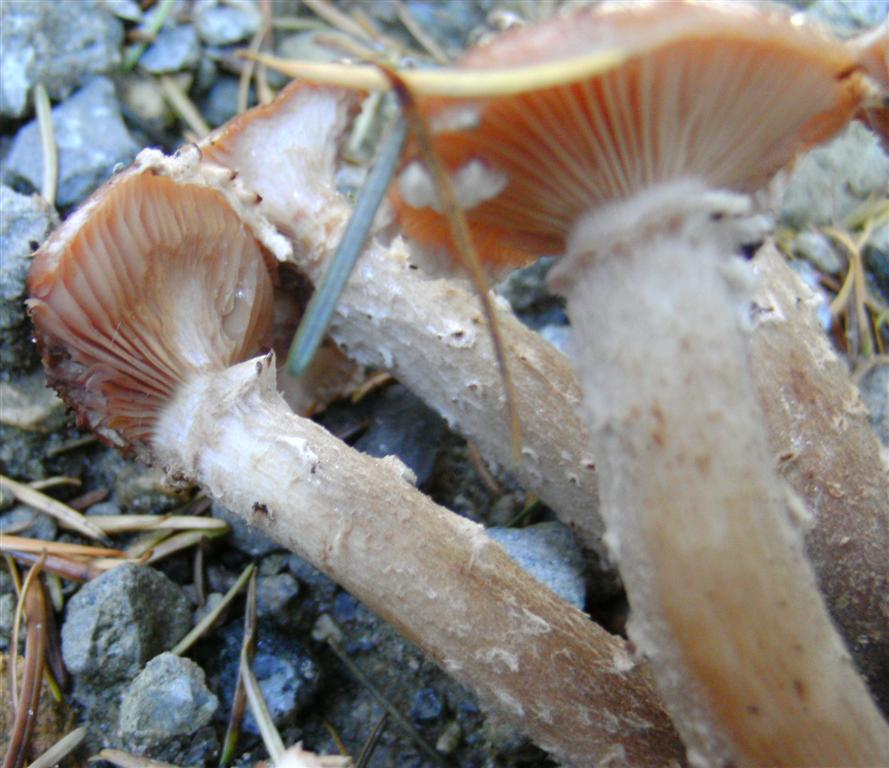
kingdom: Fungi
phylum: Basidiomycota
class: Agaricomycetes
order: Agaricales
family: Physalacriaceae
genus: Armillaria
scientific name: Armillaria ostoyae
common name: mørk honningsvamp
